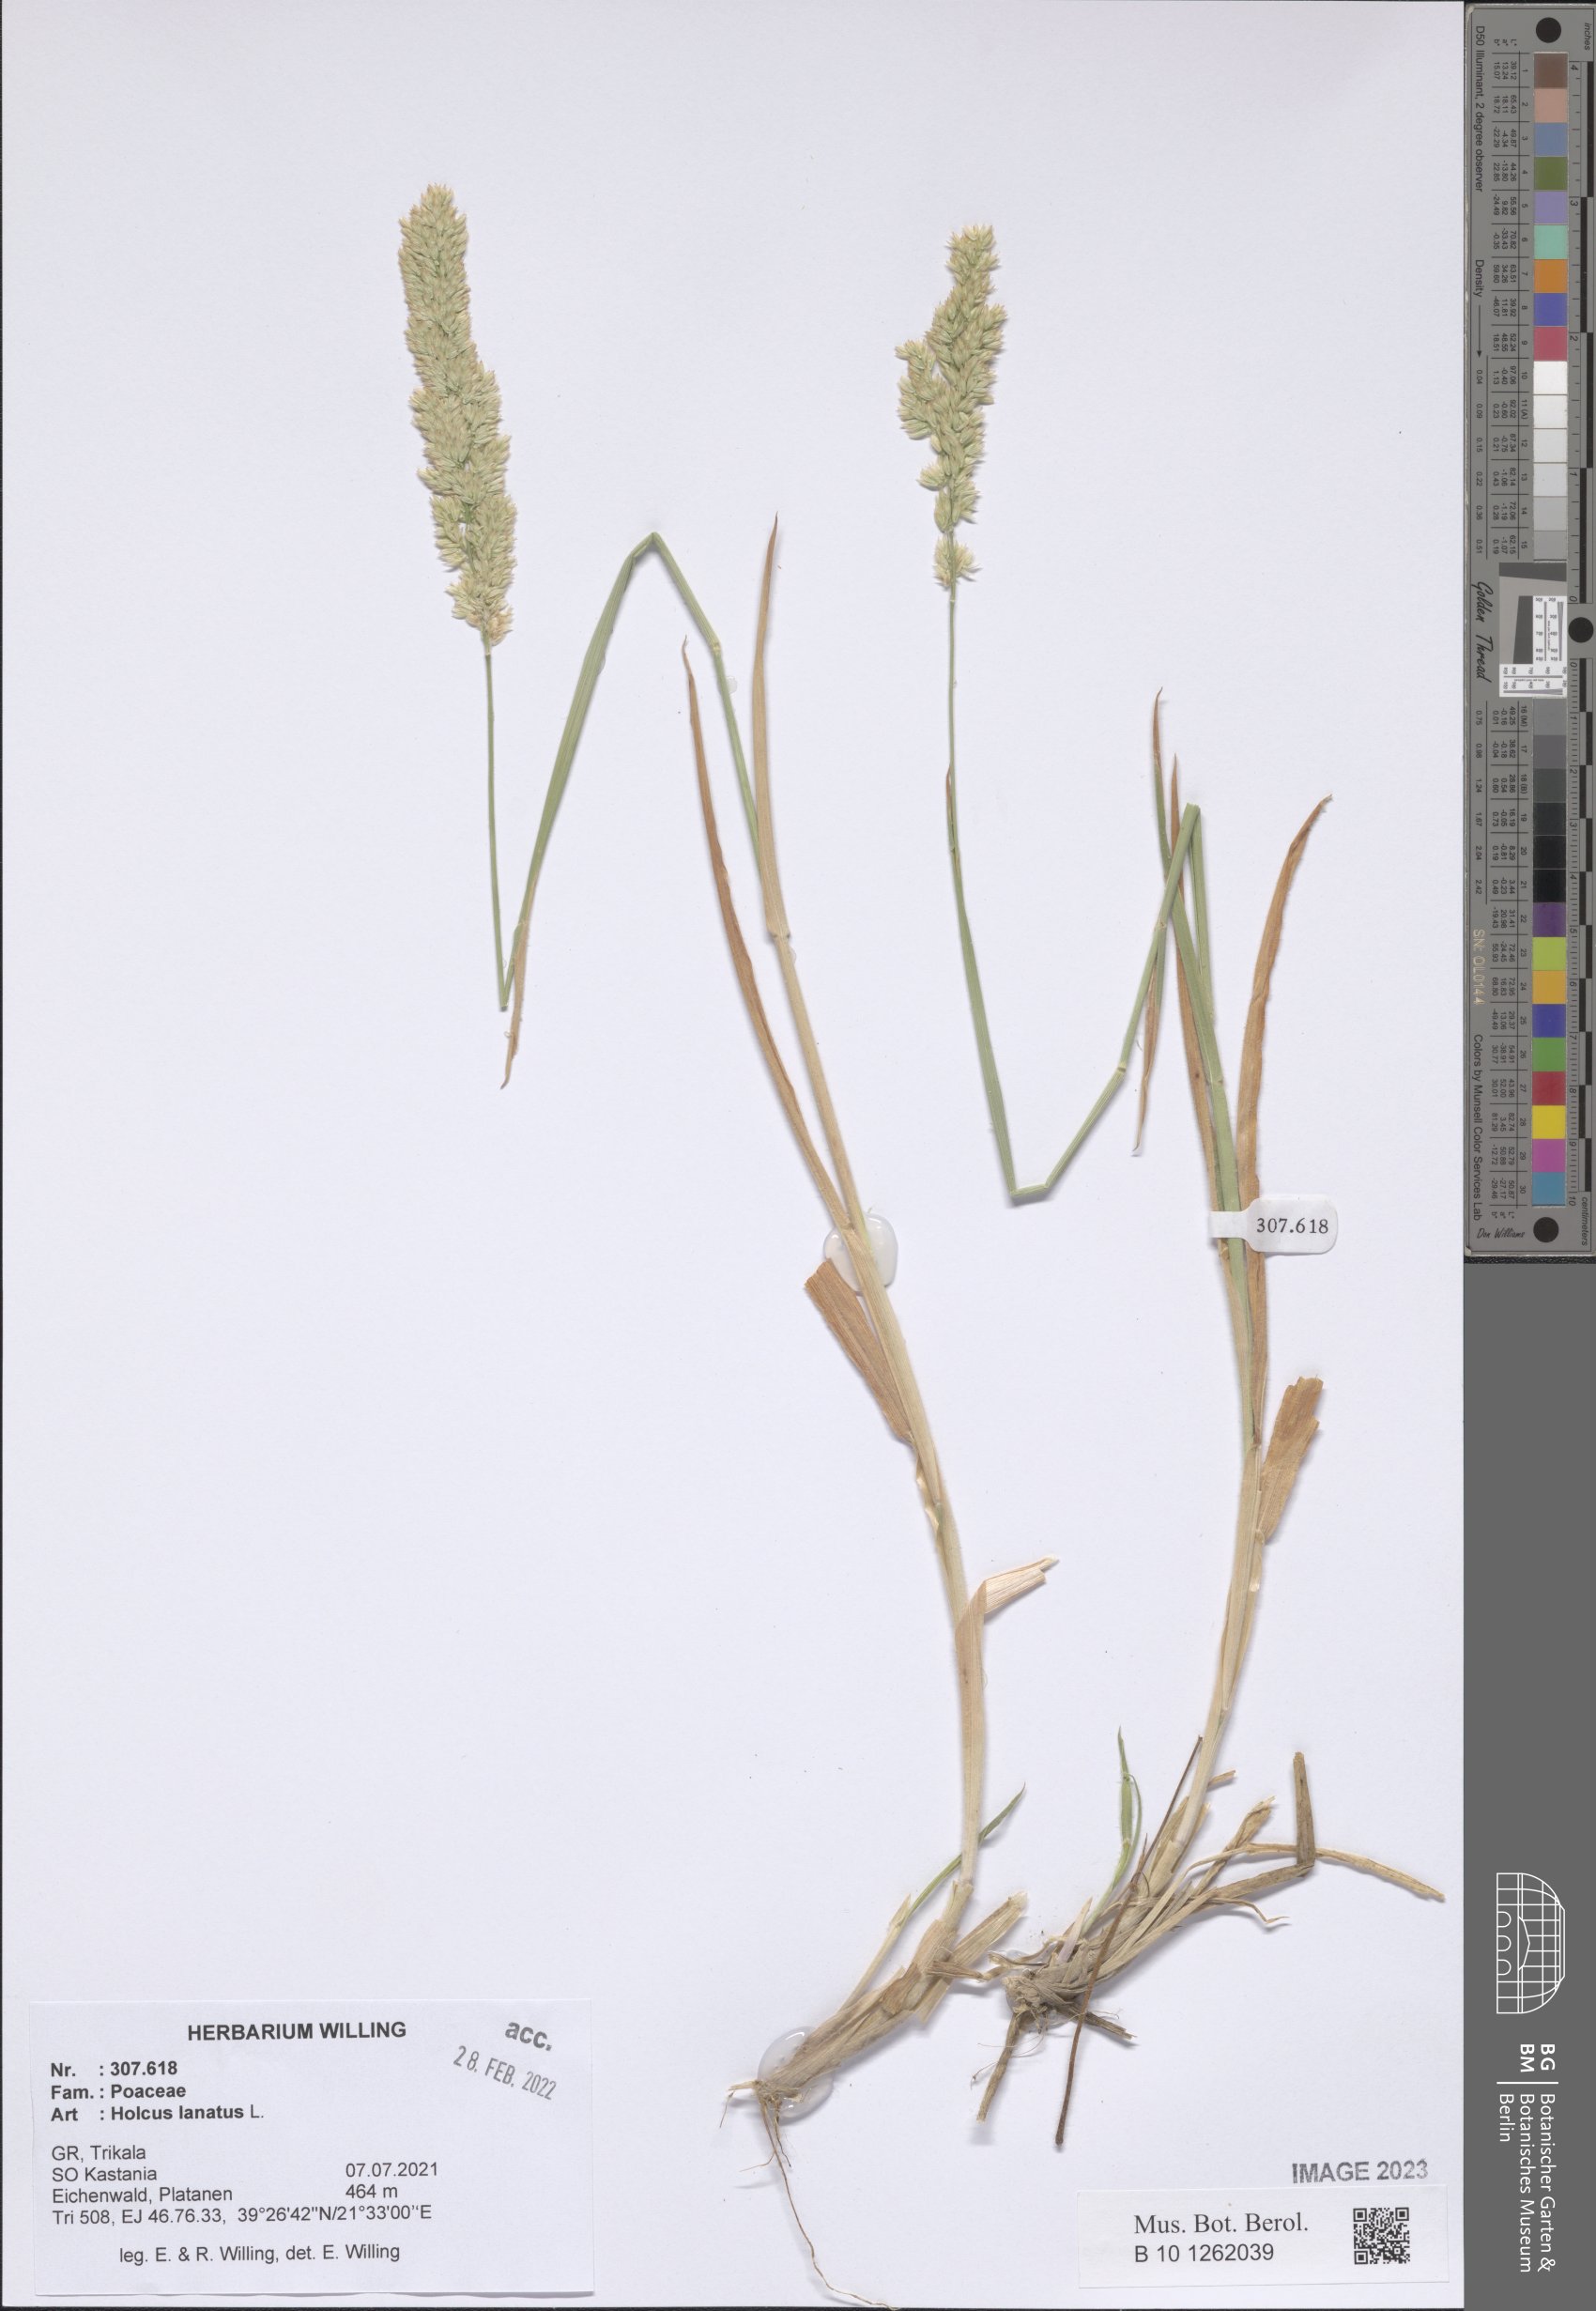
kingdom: Plantae
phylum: Tracheophyta
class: Liliopsida
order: Poales
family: Poaceae
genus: Holcus
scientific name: Holcus lanatus
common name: Yorkshire-fog
